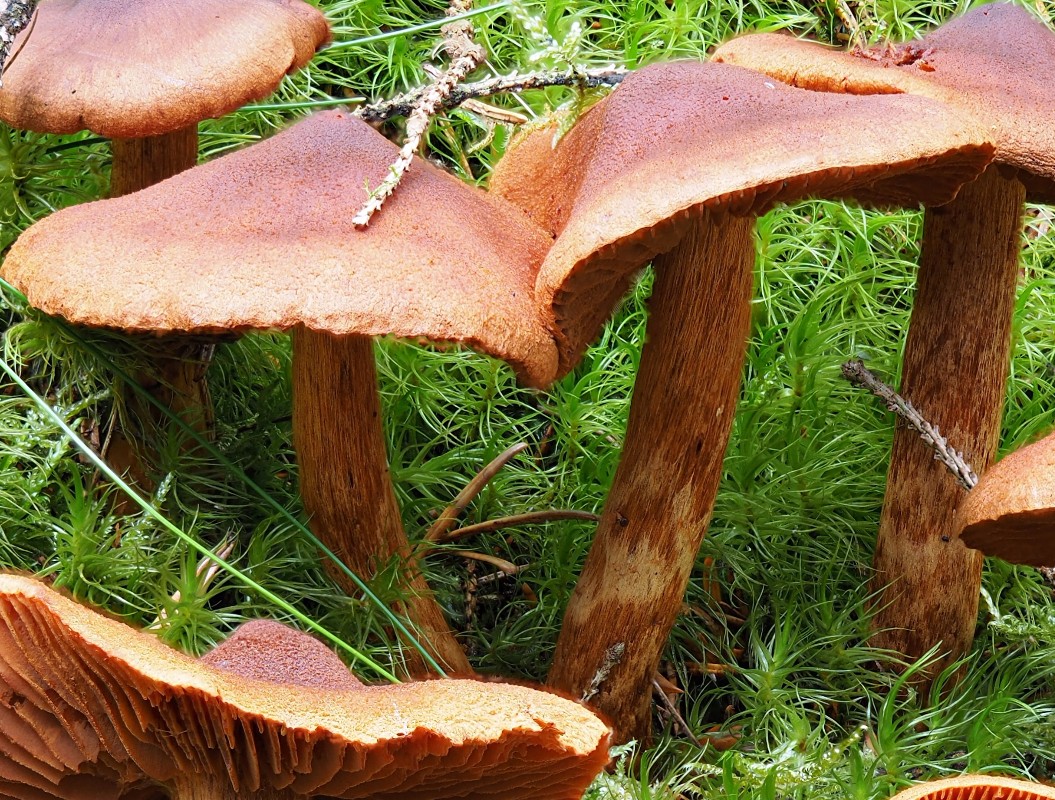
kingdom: Fungi
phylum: Basidiomycota
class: Agaricomycetes
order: Agaricales
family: Cortinariaceae
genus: Cortinarius
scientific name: Cortinarius rubellus
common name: puklet gift-slørhat
